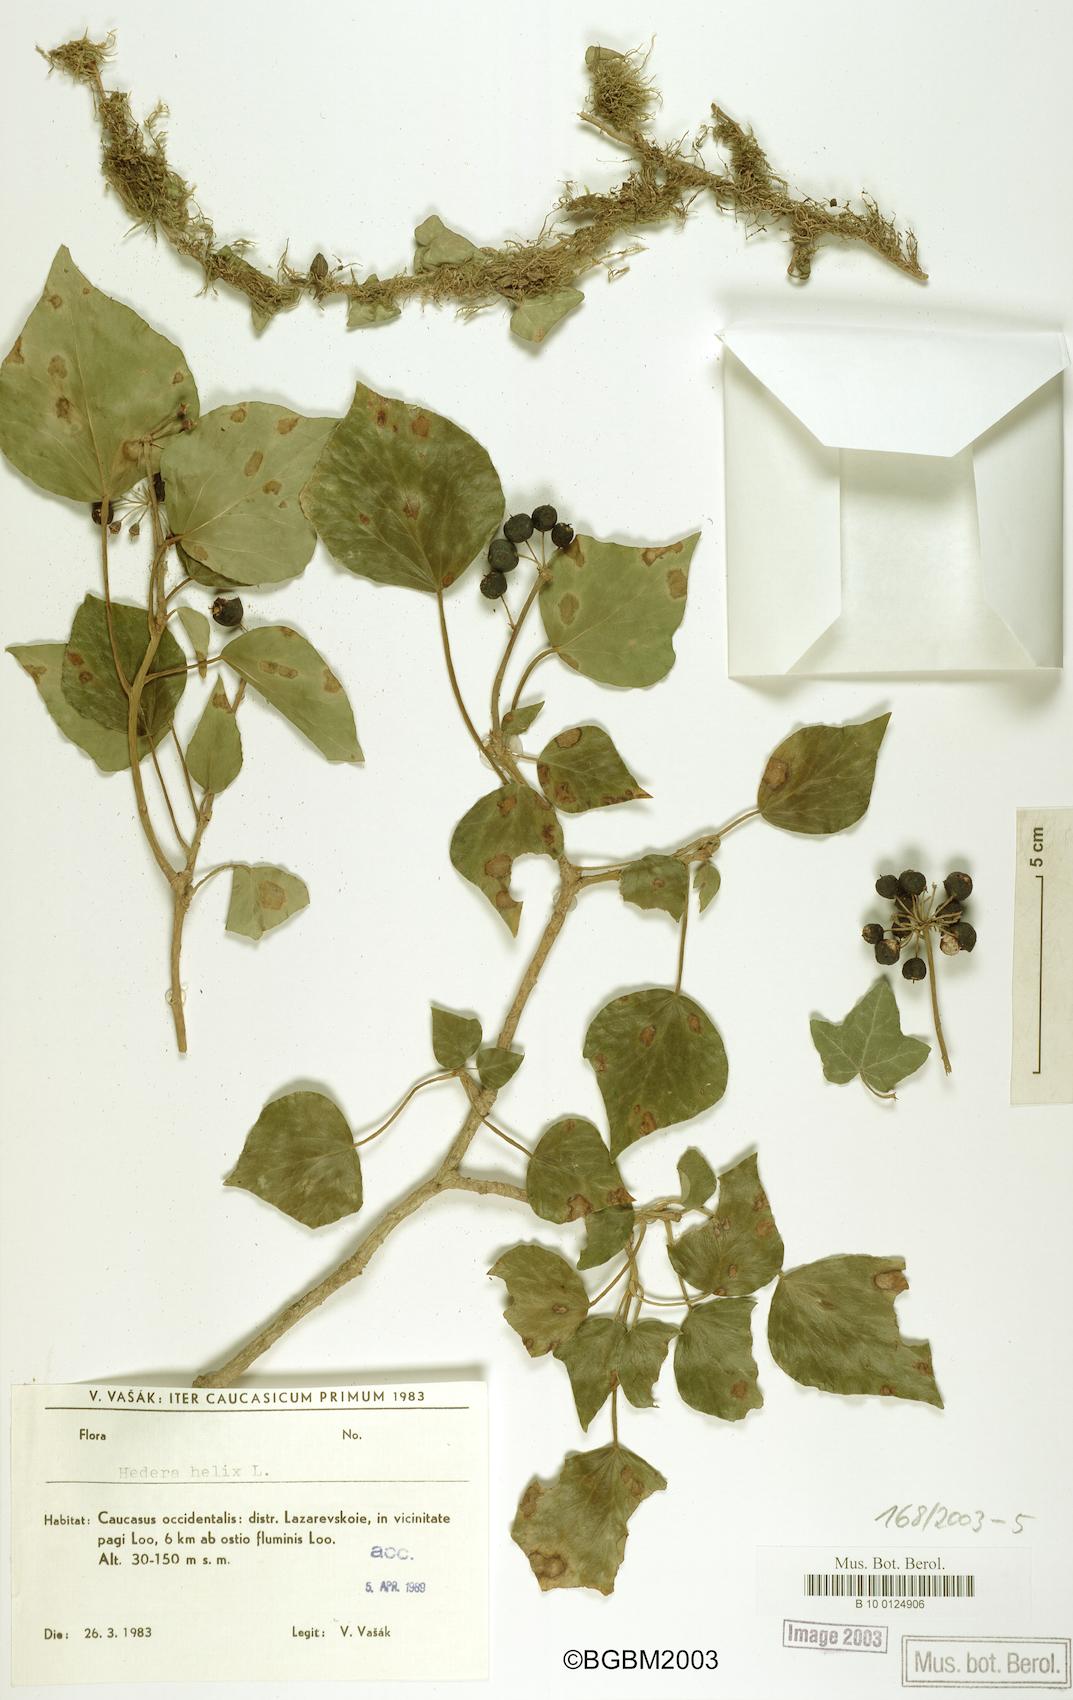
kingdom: Plantae
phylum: Tracheophyta
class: Magnoliopsida
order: Apiales
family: Araliaceae
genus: Hedera
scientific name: Hedera helix
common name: Ivy
